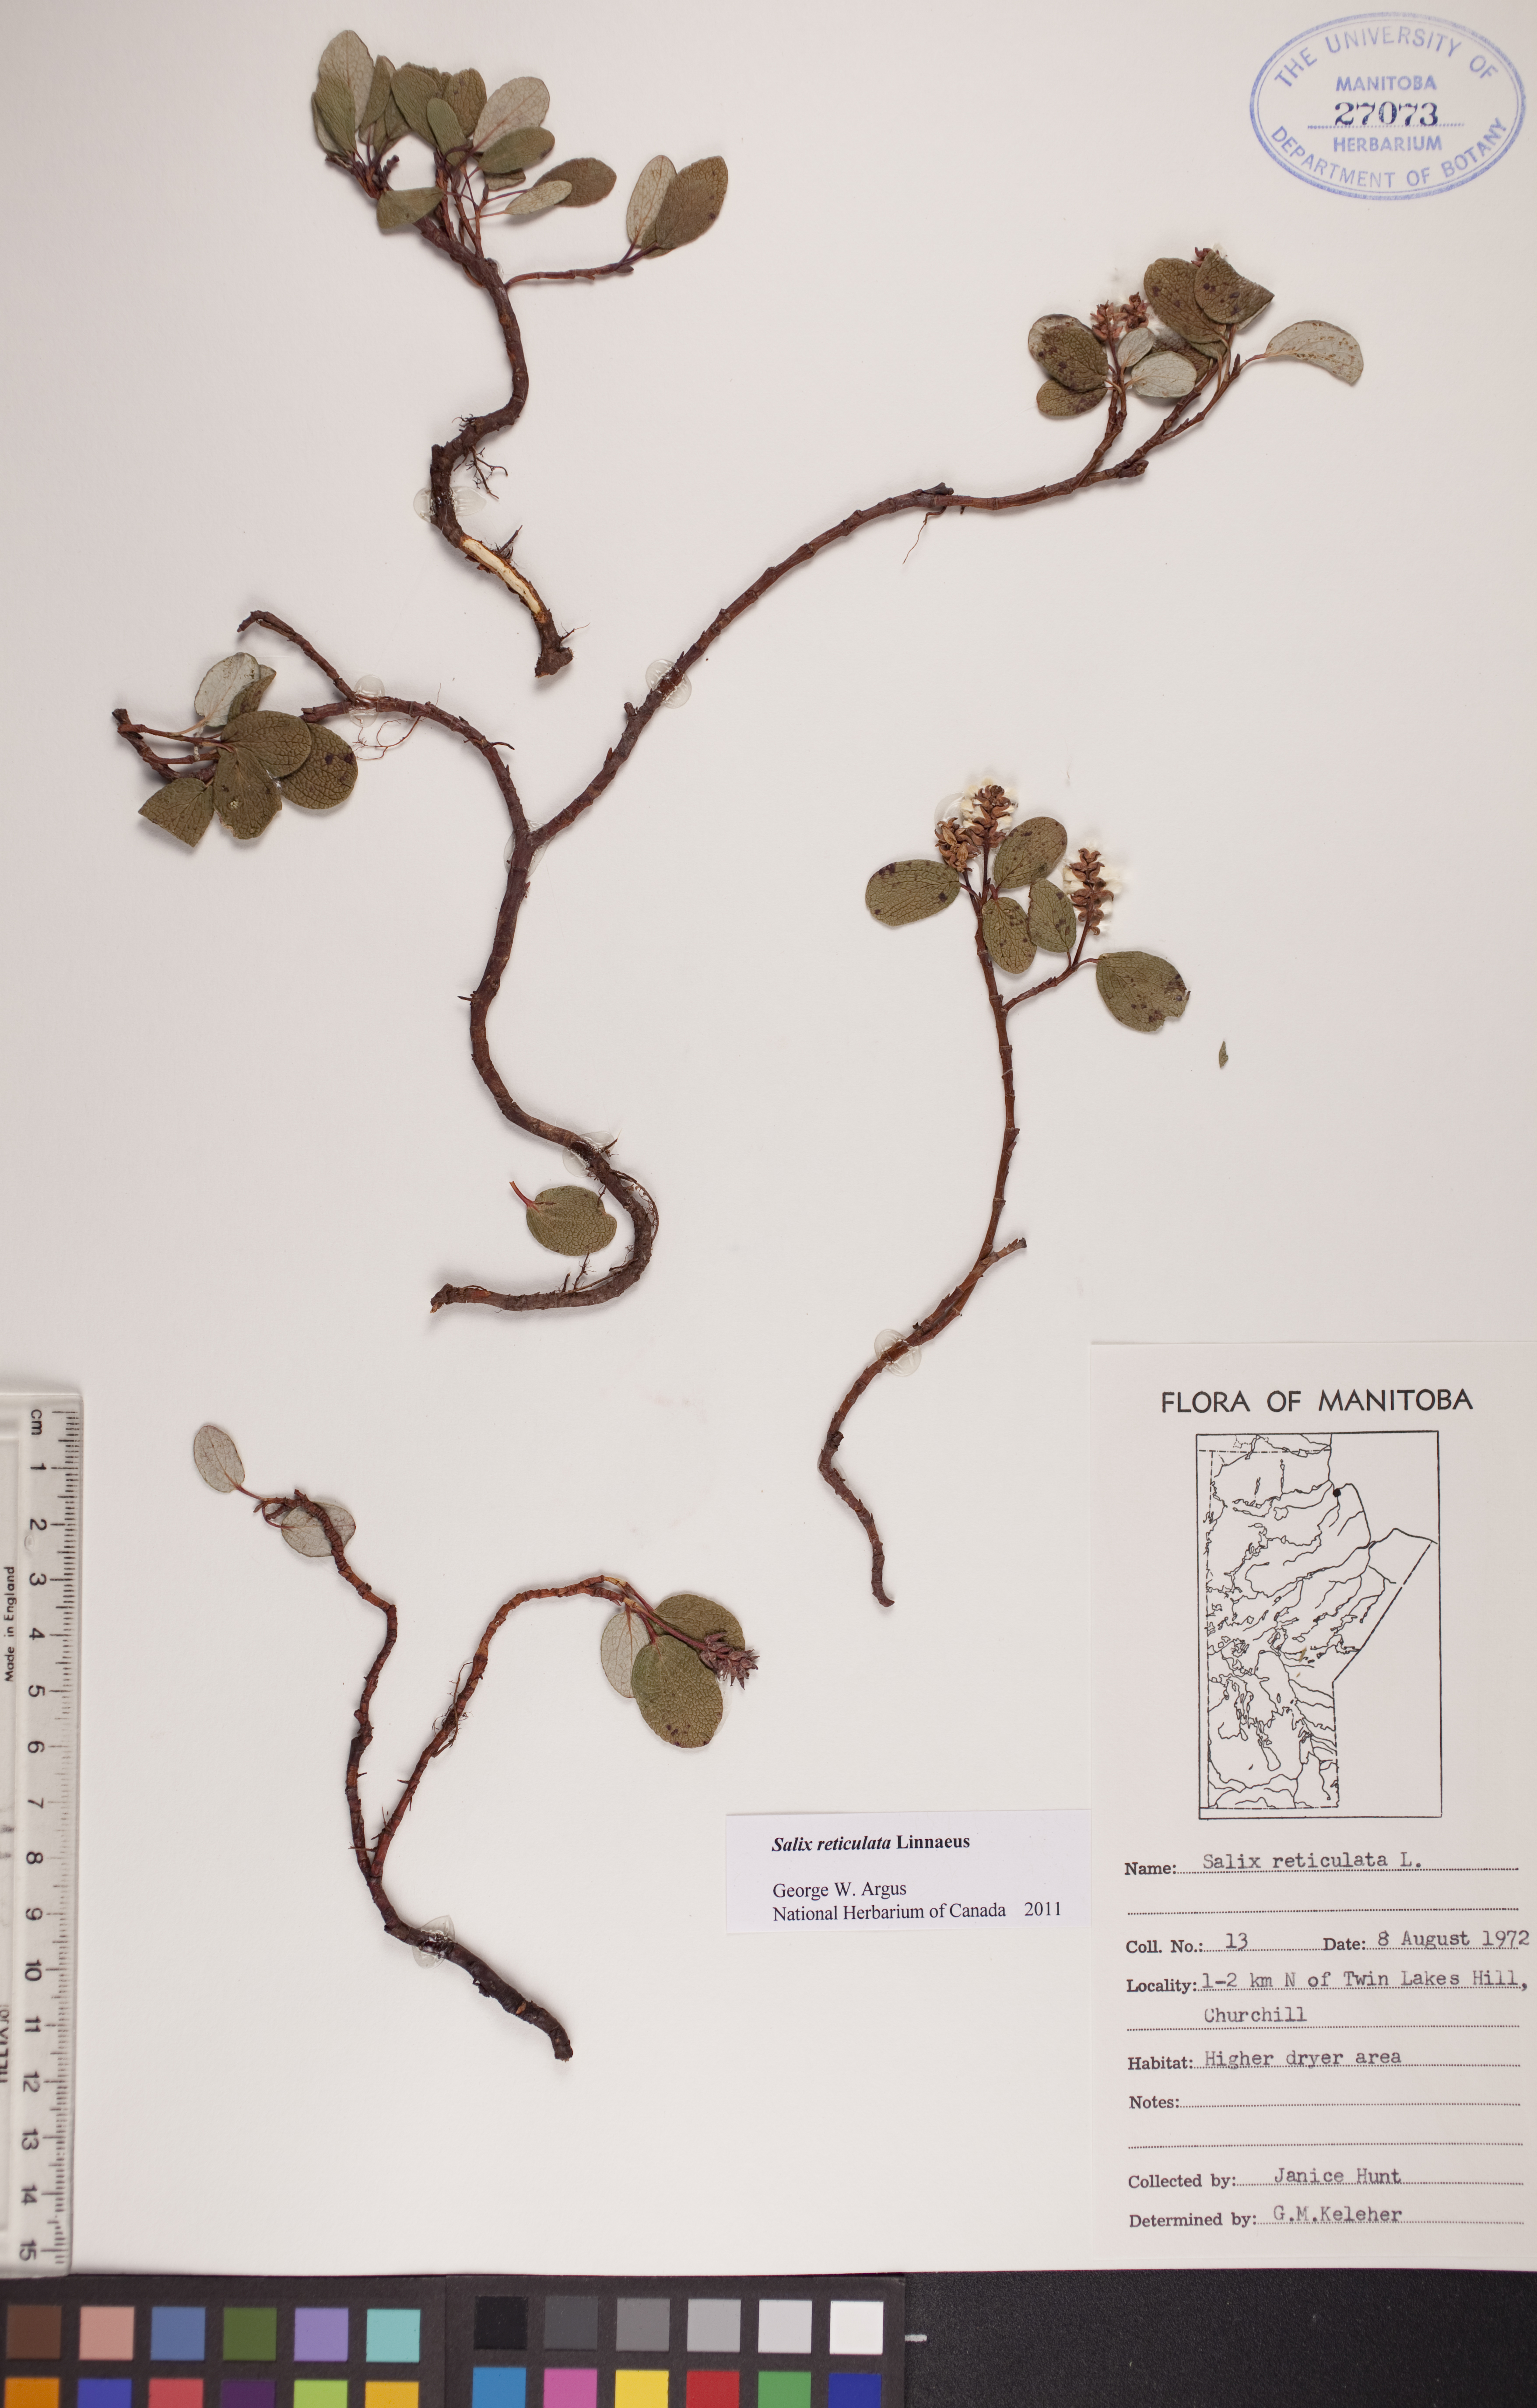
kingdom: Plantae
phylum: Tracheophyta
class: Magnoliopsida
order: Malpighiales
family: Salicaceae
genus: Salix
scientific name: Salix reticulata
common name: Net-leaved willow
